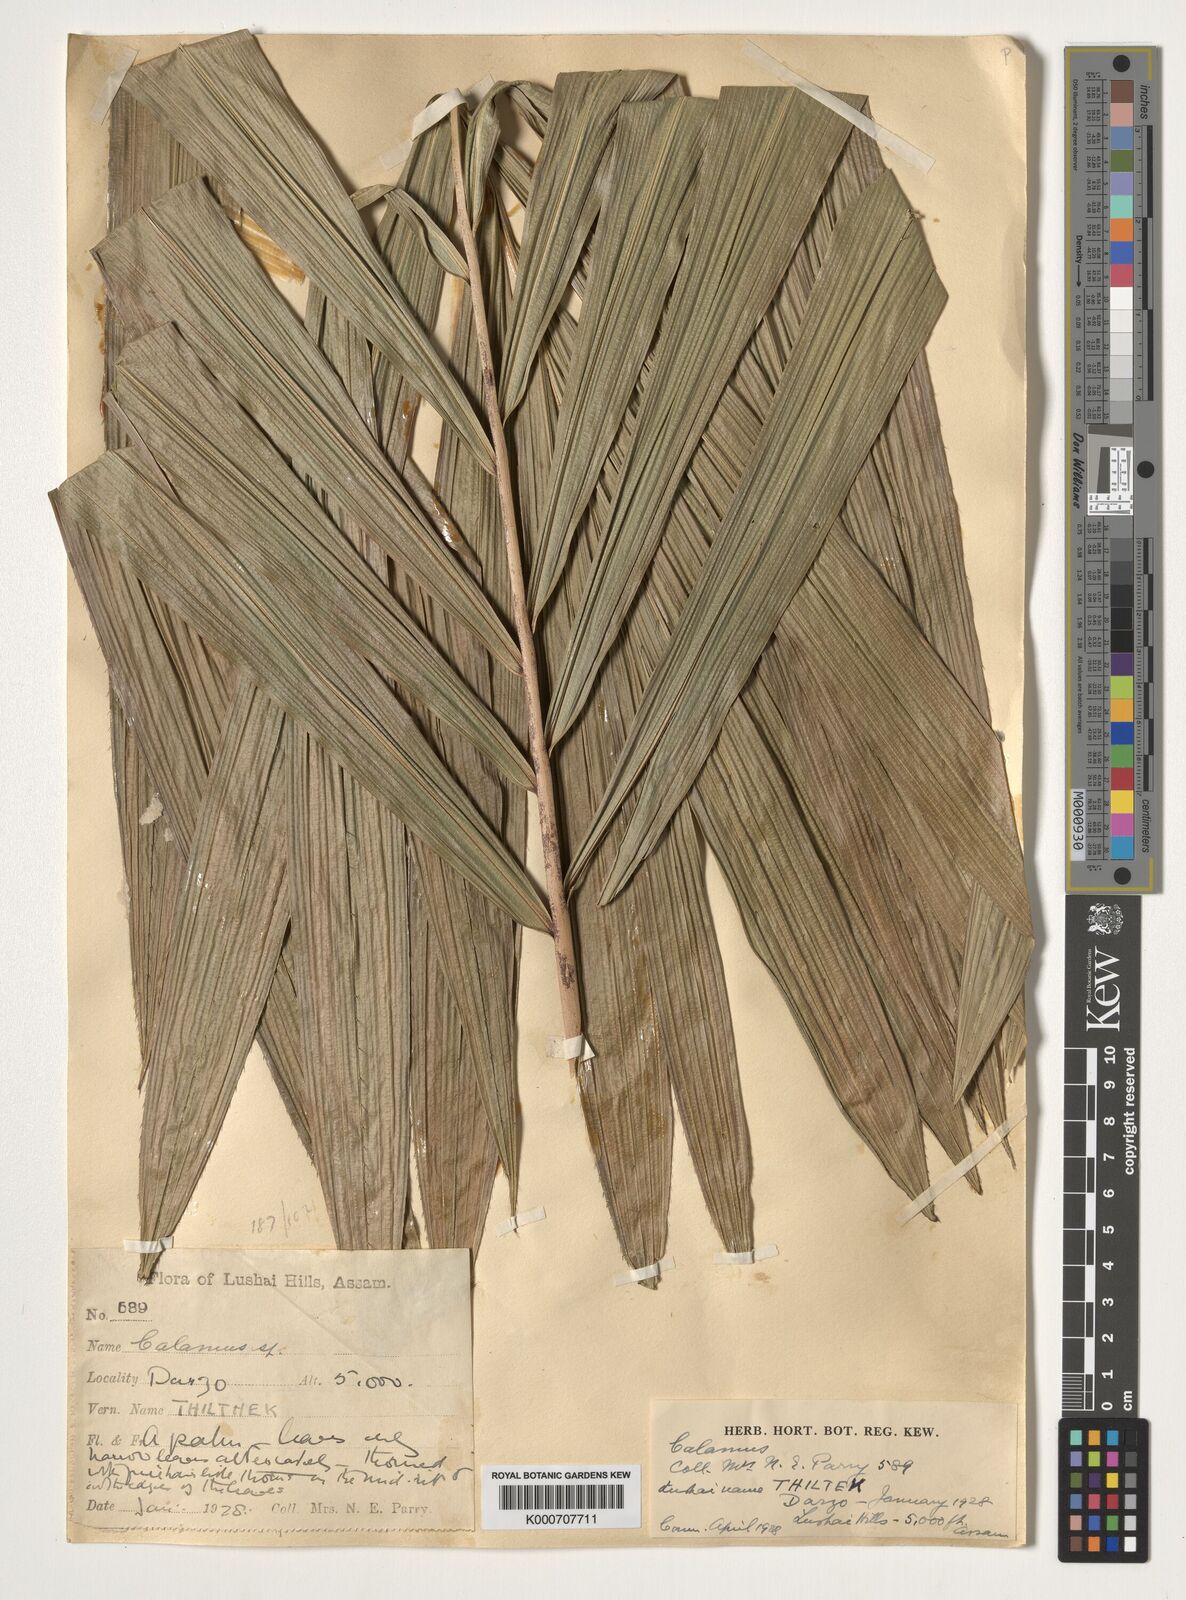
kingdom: Plantae
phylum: Tracheophyta
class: Liliopsida
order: Arecales
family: Arecaceae
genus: Calamus
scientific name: Calamus
